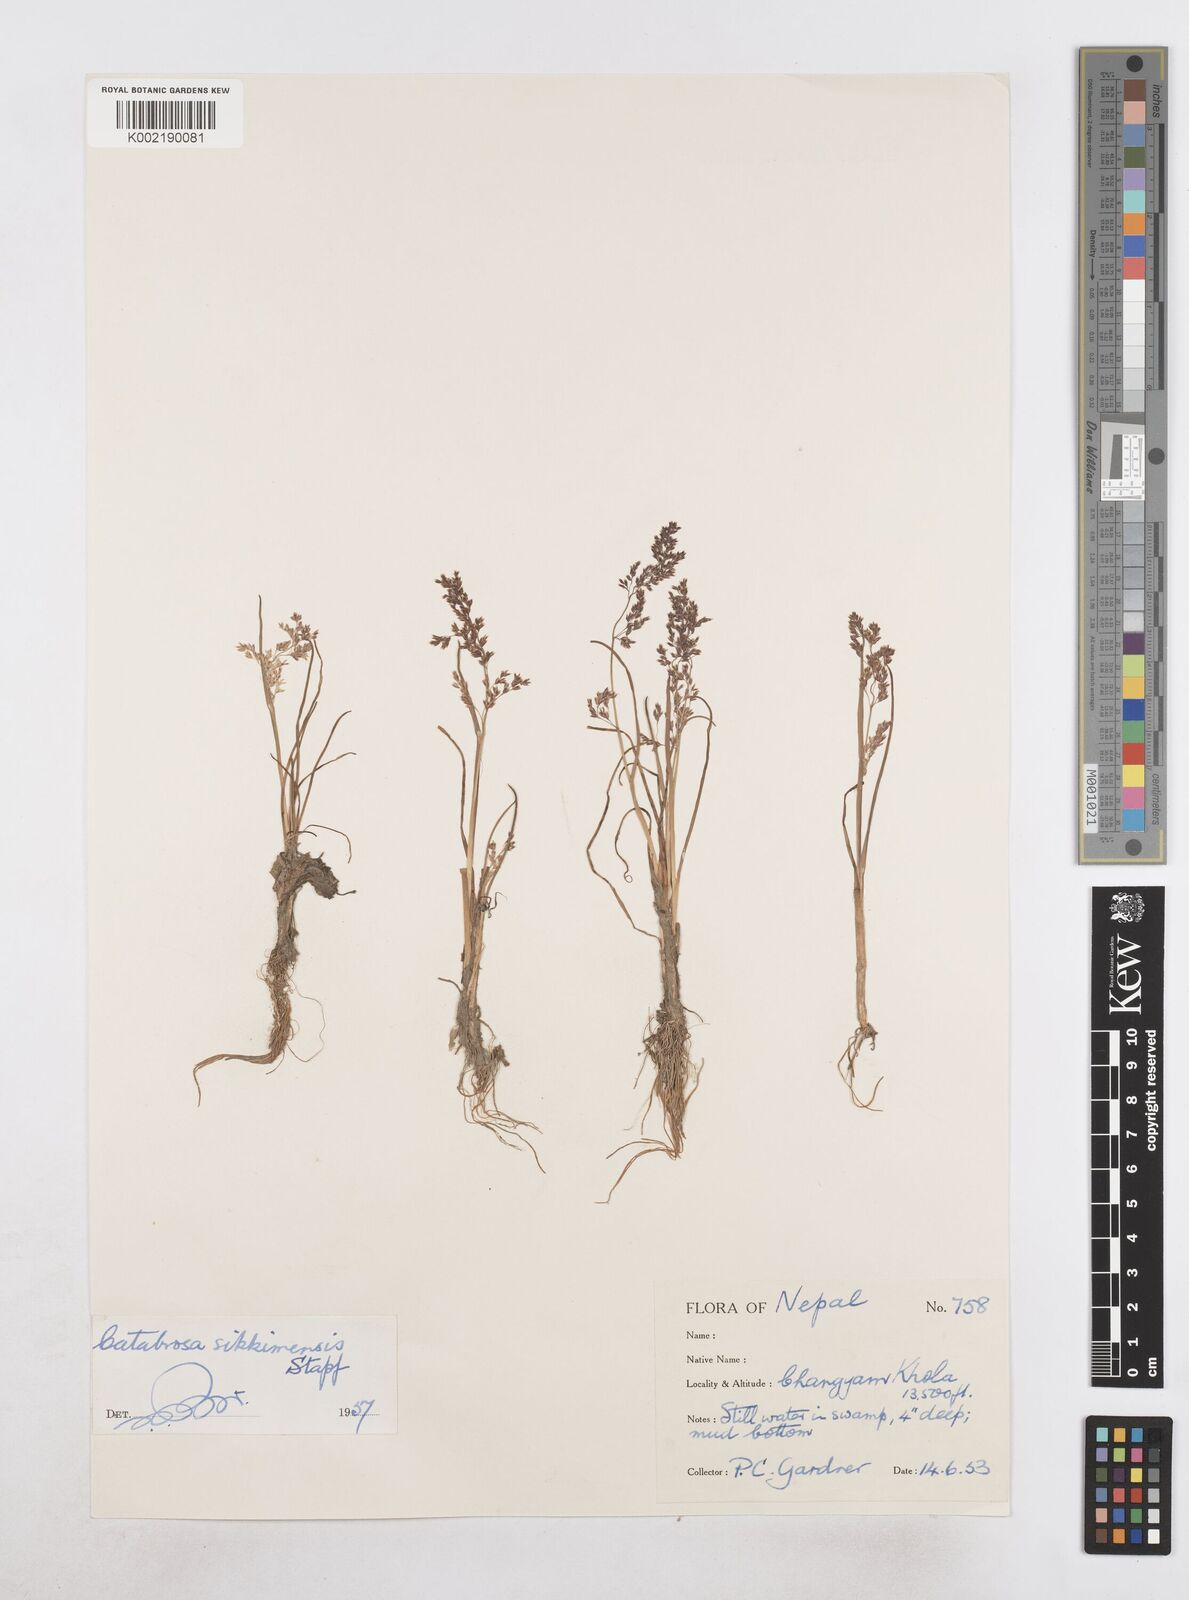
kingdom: Plantae
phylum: Tracheophyta
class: Liliopsida
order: Poales
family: Poaceae
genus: Catabrosa
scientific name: Catabrosa aquatica
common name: Whorl-grass
